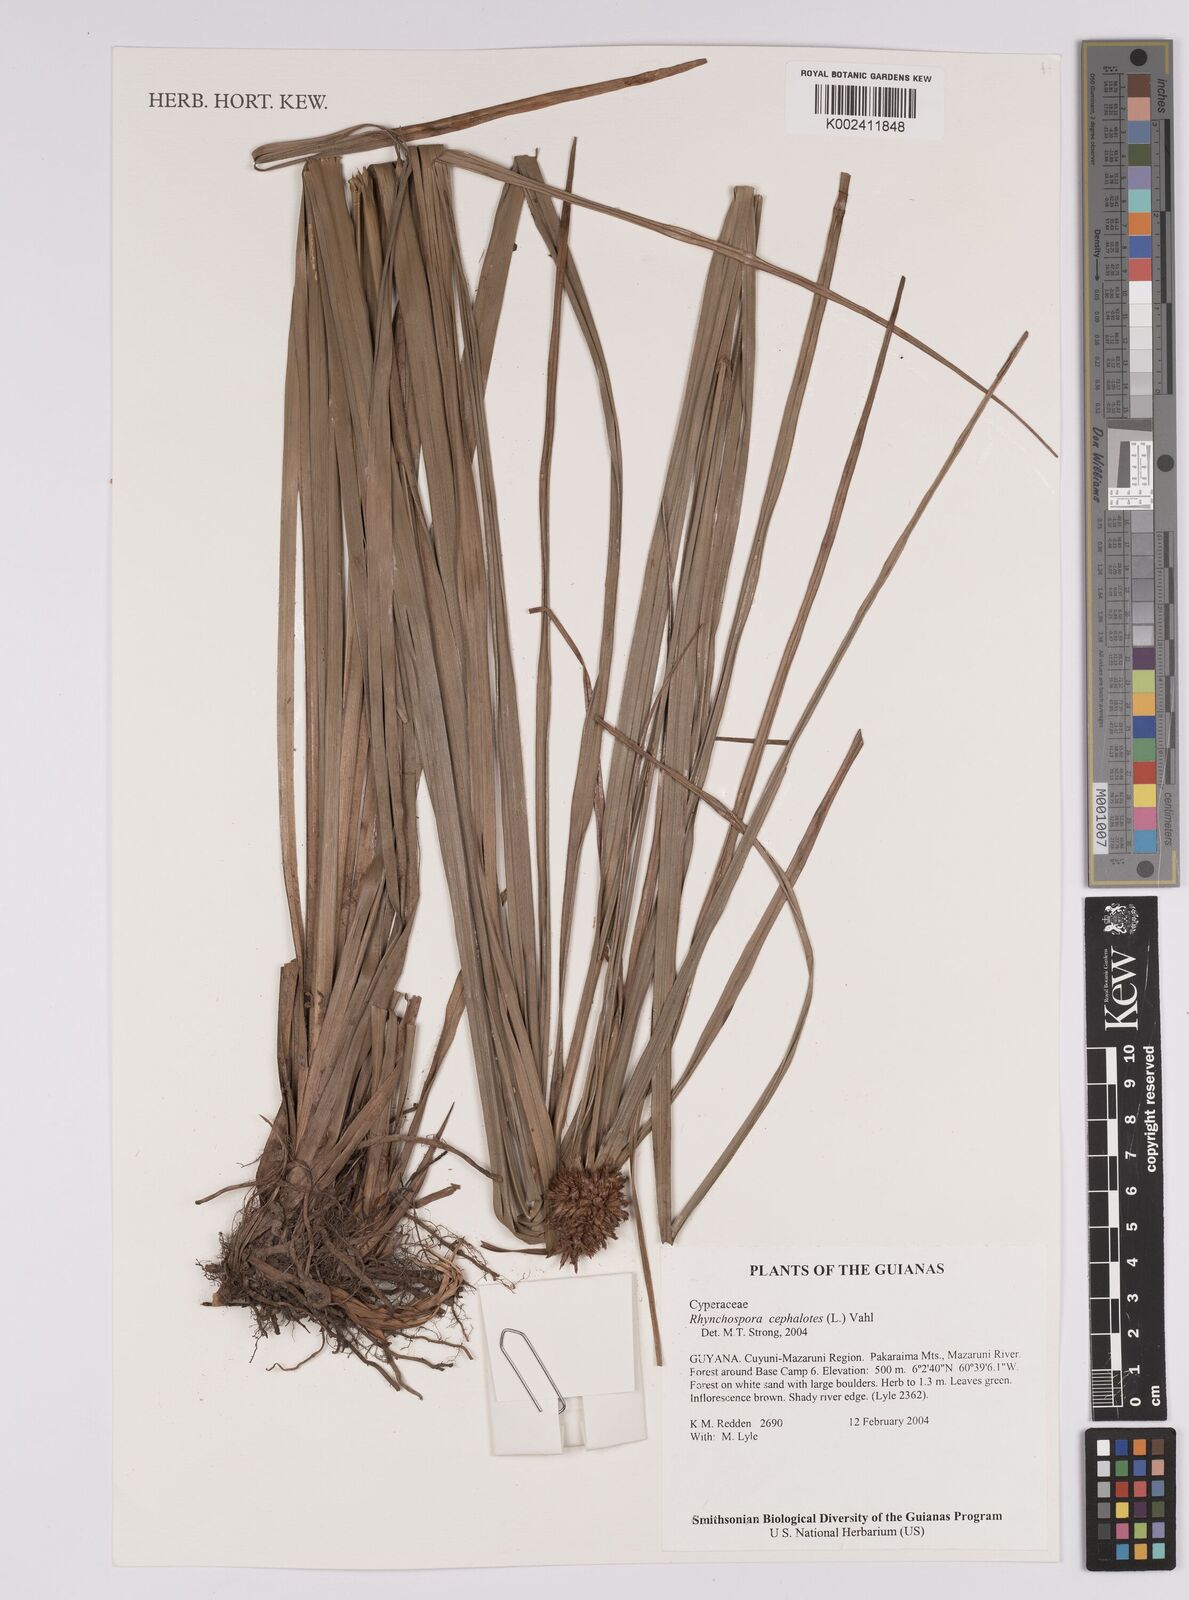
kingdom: Plantae
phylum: Tracheophyta
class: Liliopsida
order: Poales
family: Cyperaceae
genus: Rhynchospora
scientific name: Rhynchospora cephalotes
